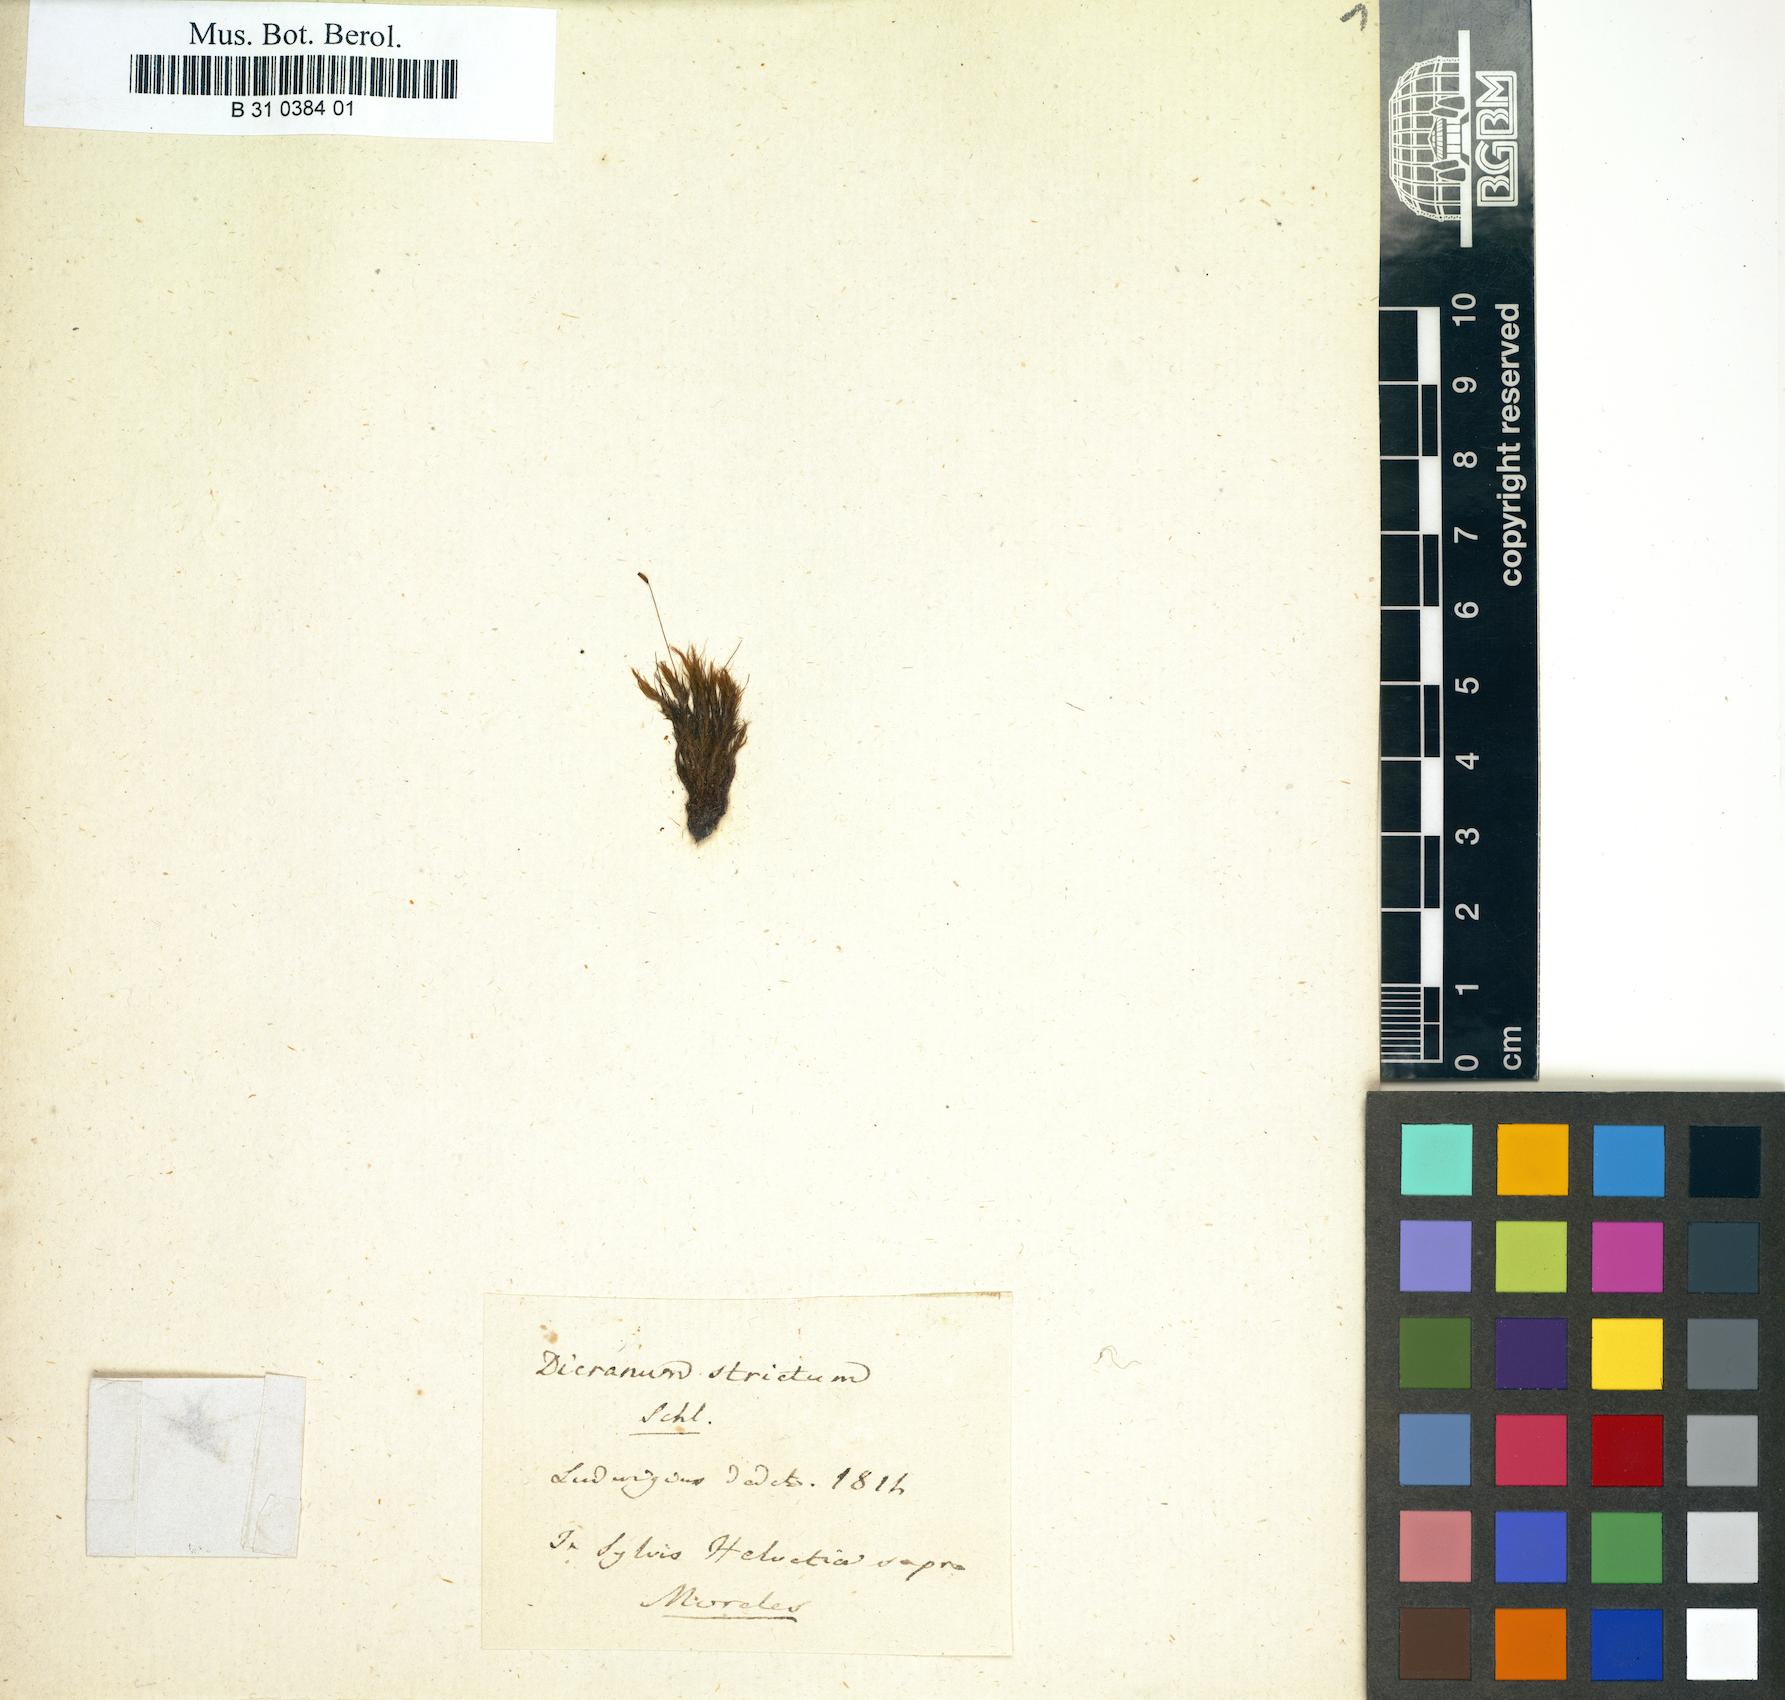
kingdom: Plantae
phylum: Bryophyta
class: Bryopsida
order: Dicranales
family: Ditrichaceae
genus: Ceratodon
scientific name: Ceratodon purpureus
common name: Redshank
